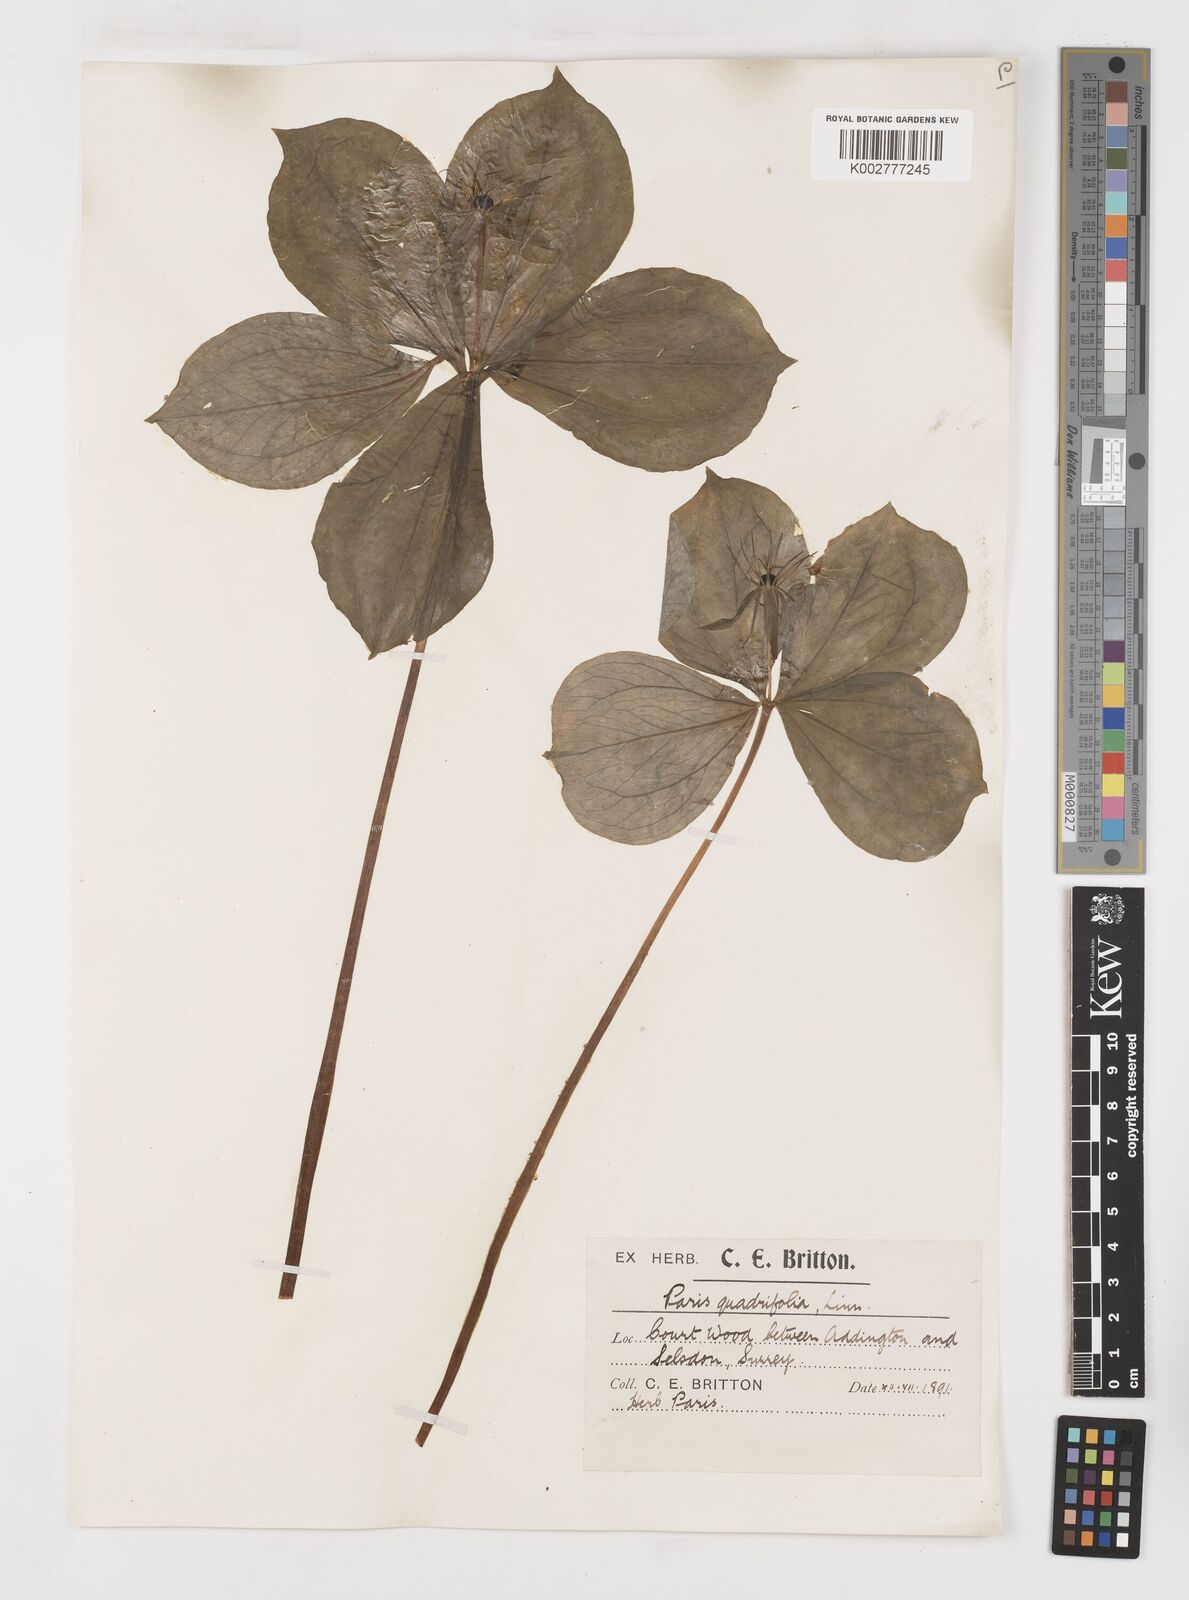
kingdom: Plantae
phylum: Tracheophyta
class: Liliopsida
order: Liliales
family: Melanthiaceae
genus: Paris
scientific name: Paris
